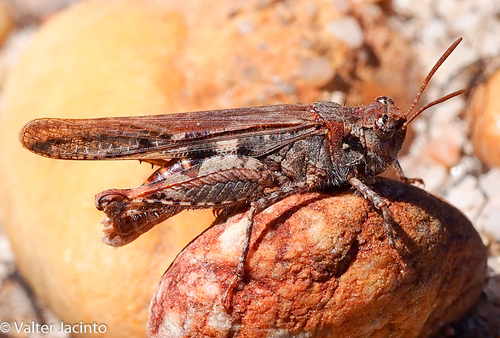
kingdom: Animalia
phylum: Arthropoda
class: Insecta
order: Orthoptera
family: Acrididae
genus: Acrotylus
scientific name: Acrotylus insubricus
